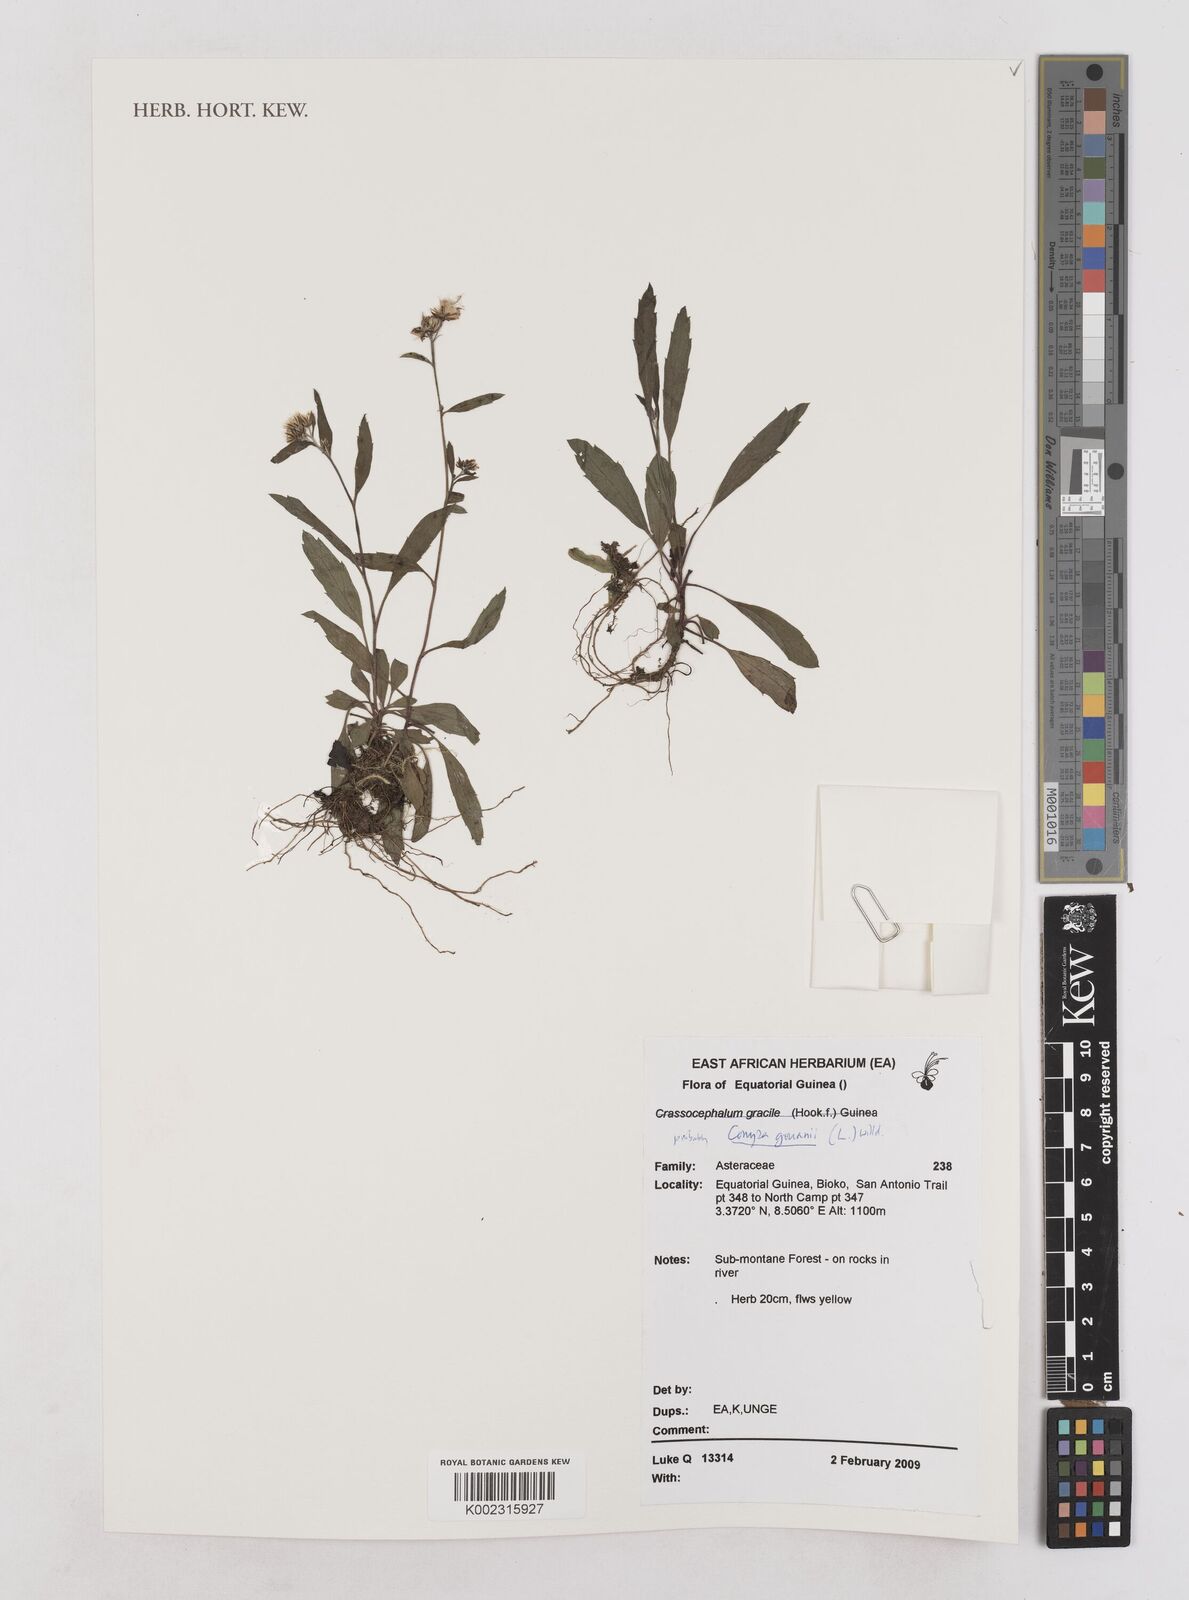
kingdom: Plantae
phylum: Tracheophyta
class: Magnoliopsida
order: Asterales
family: Asteraceae
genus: Eschenbachia
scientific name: Eschenbachia gouanii
